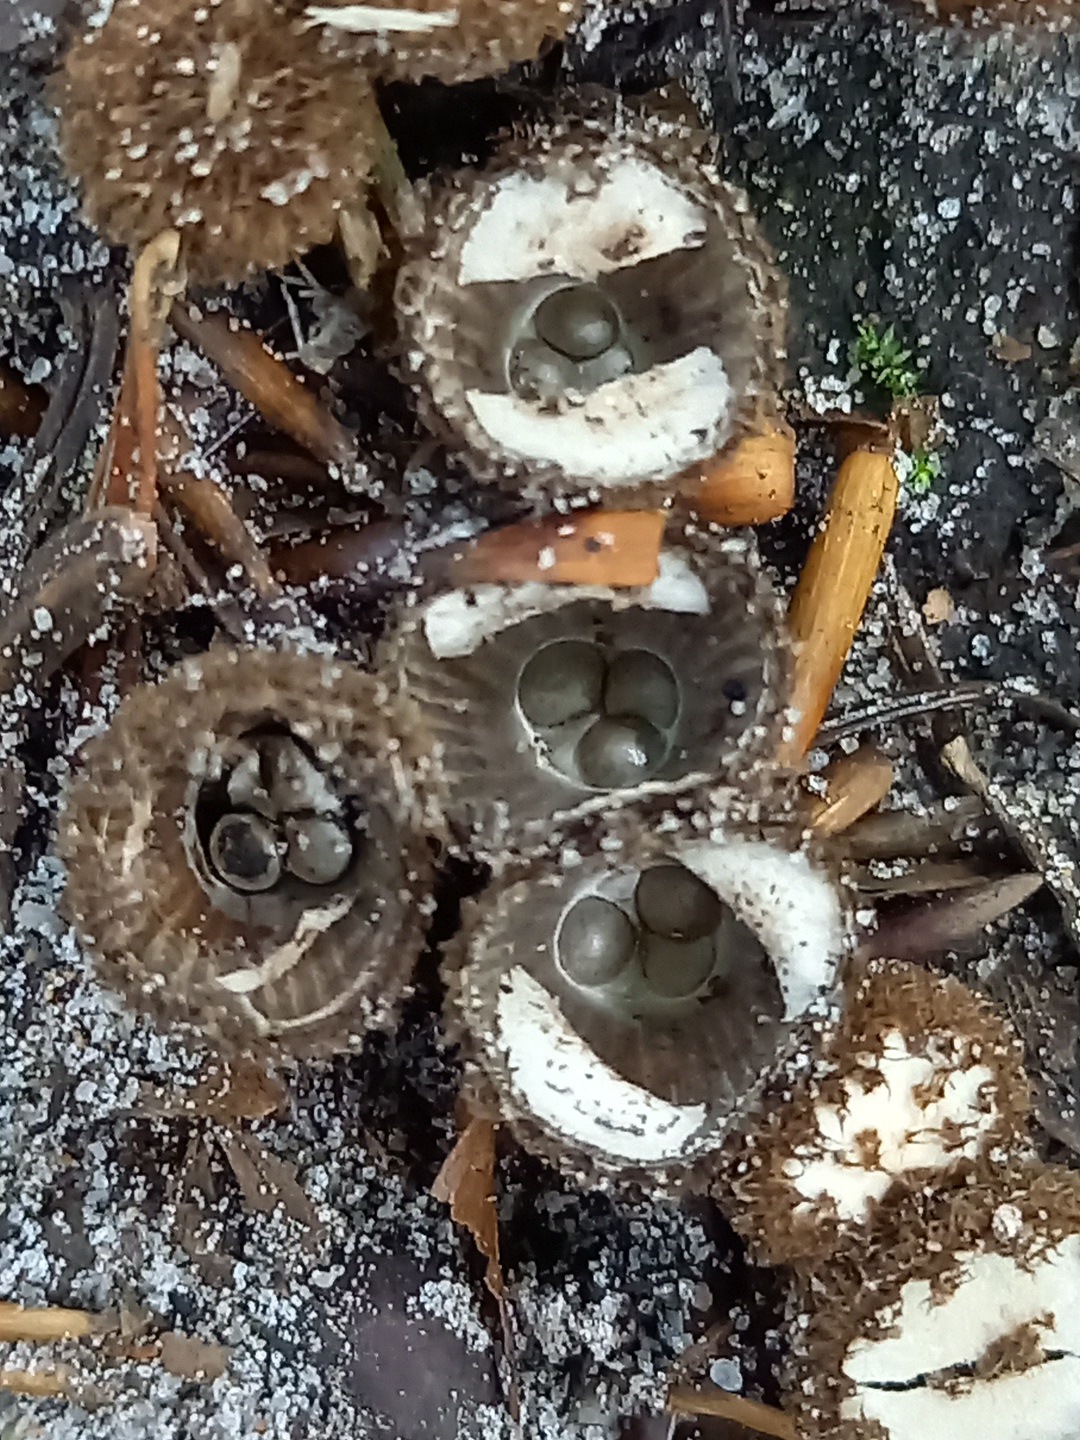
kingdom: Fungi
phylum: Basidiomycota
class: Agaricomycetes
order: Agaricales
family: Agaricaceae
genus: Cyathus
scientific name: Cyathus striatus
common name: stribet redesvamp
